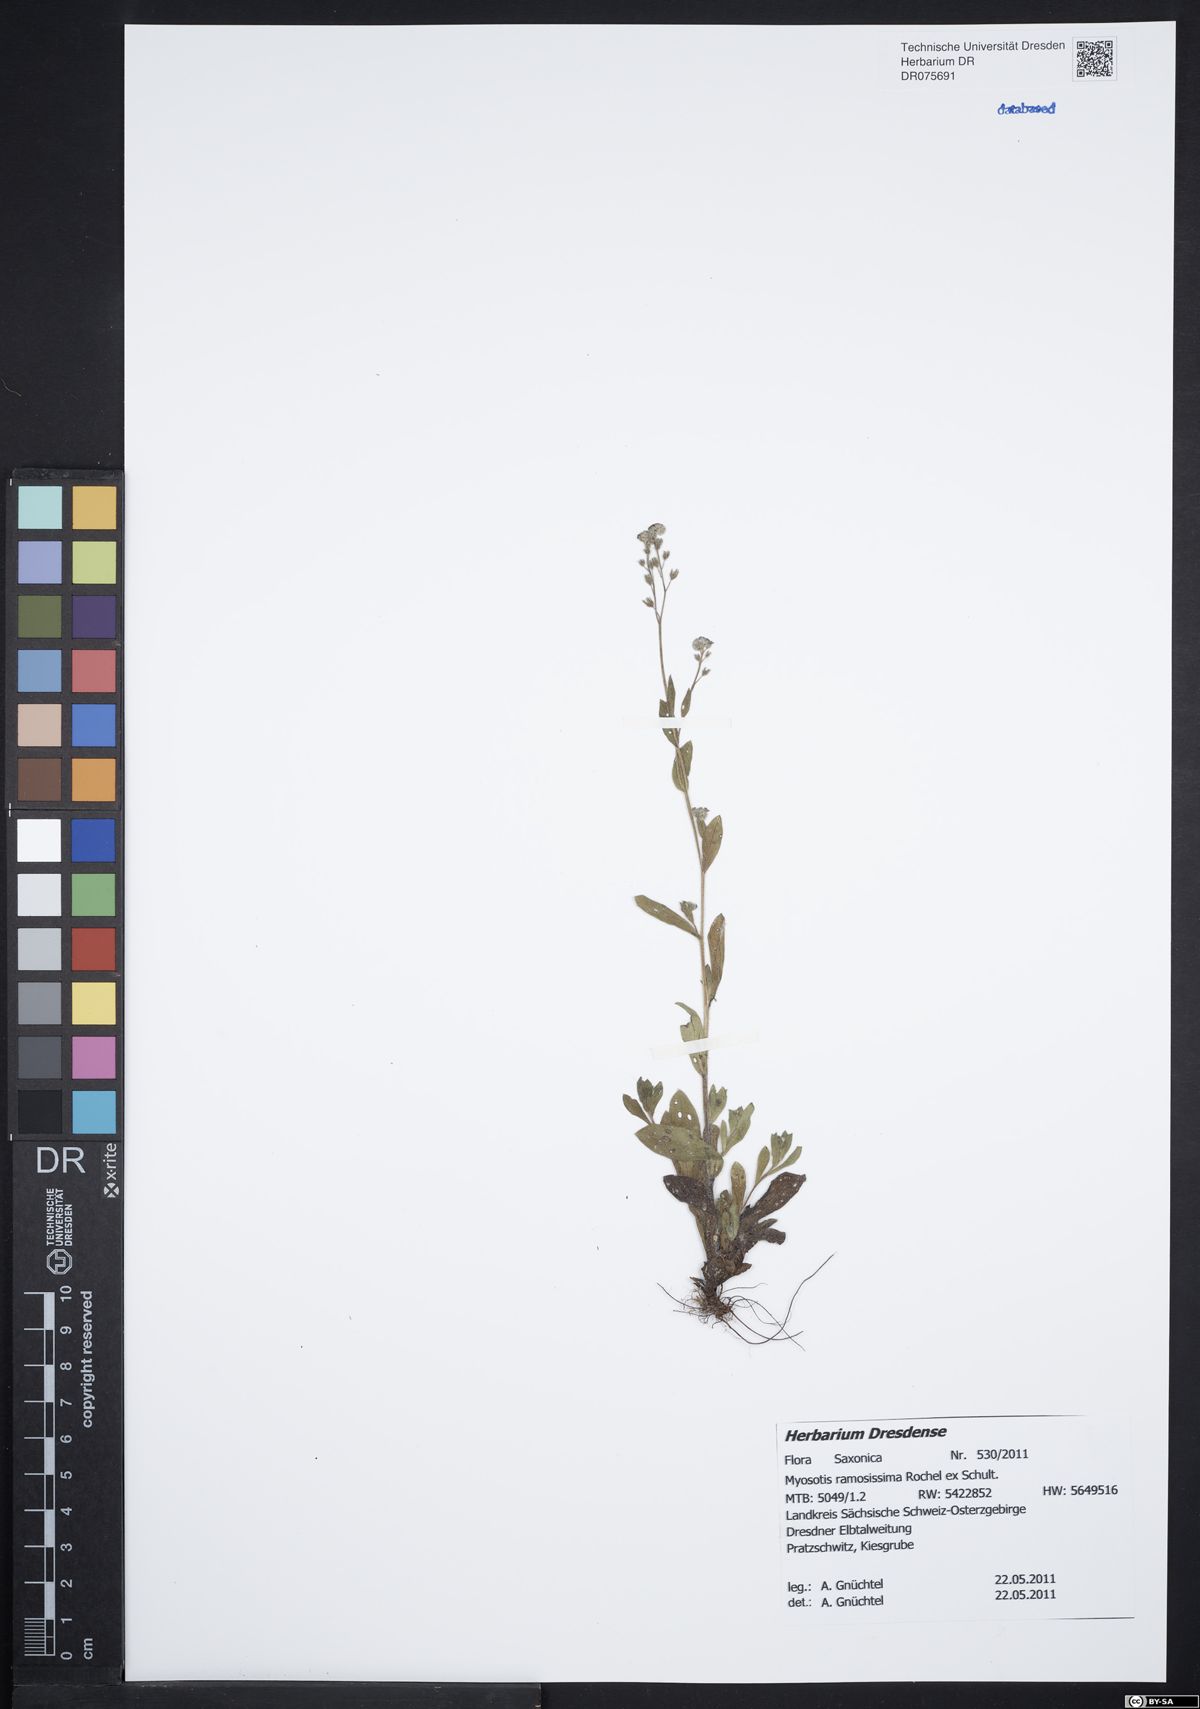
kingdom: Plantae
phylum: Tracheophyta
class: Magnoliopsida
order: Boraginales
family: Boraginaceae
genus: Myosotis
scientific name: Myosotis ramosissima
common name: Early forget-me-not
